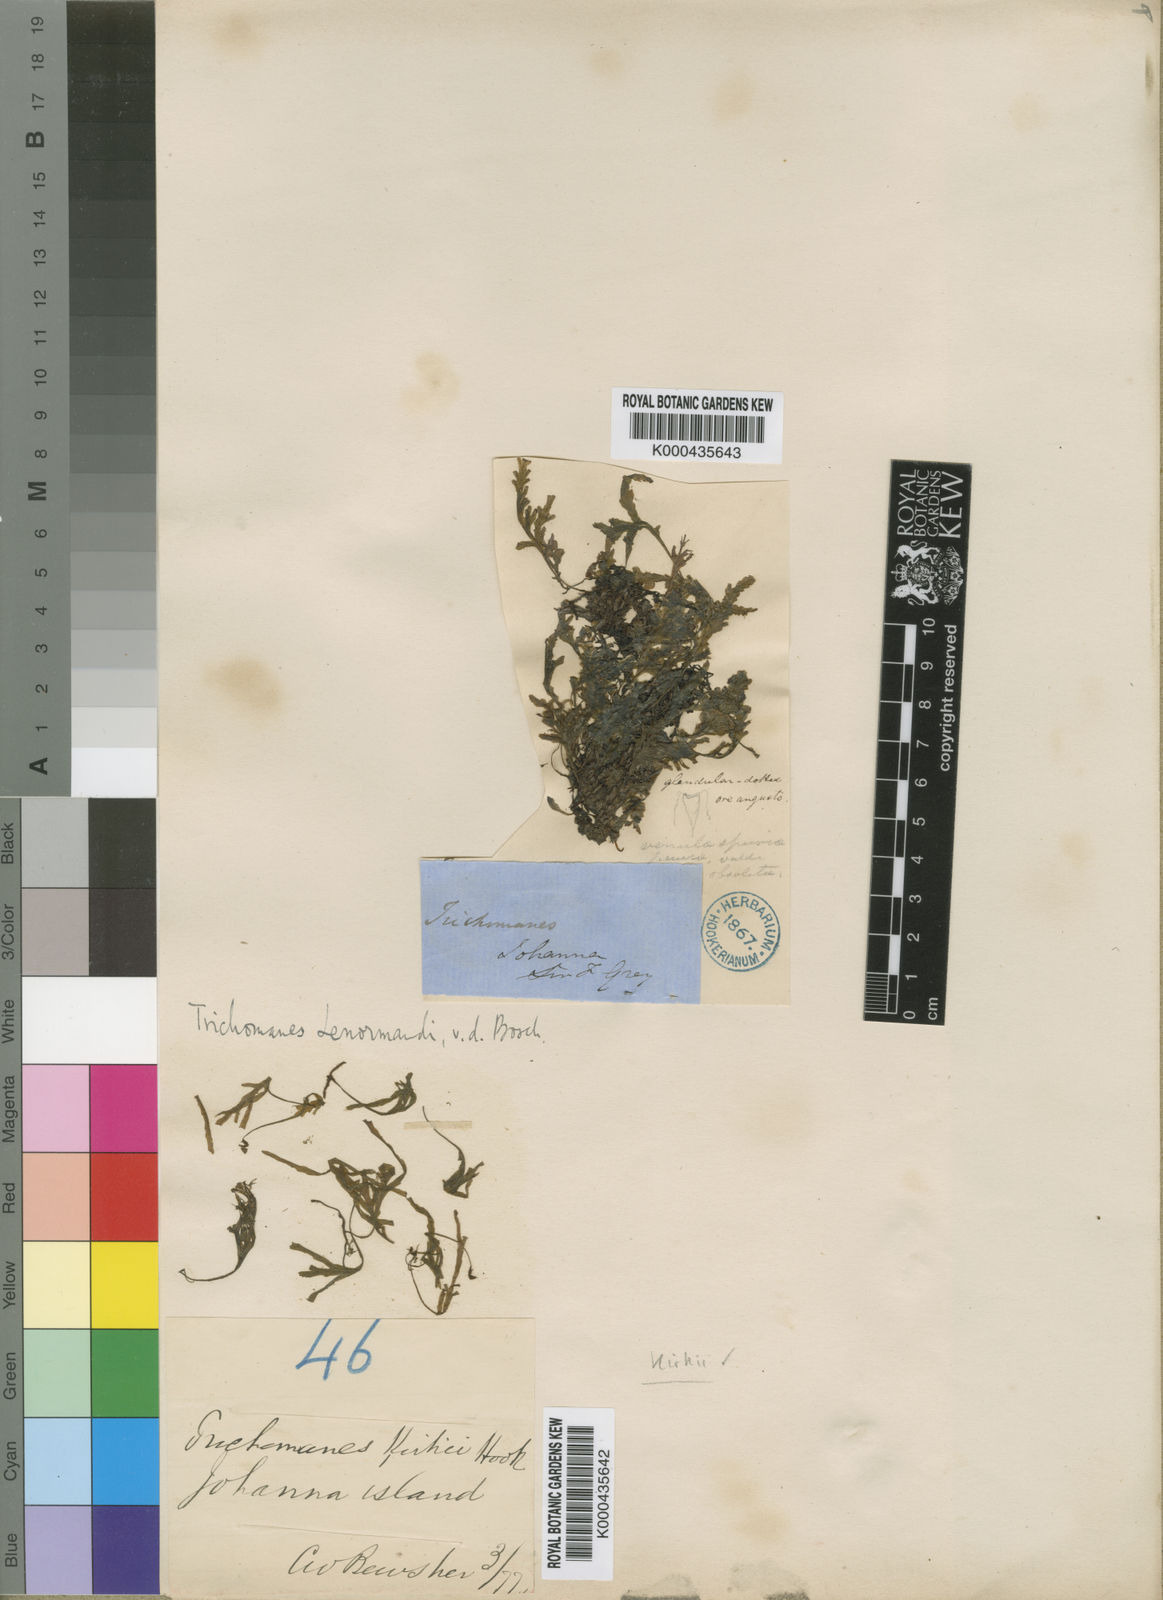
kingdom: Plantae
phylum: Tracheophyta
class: Polypodiopsida
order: Hymenophyllales
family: Hymenophyllaceae
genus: Didymoglossum
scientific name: Didymoglossum kirkii
